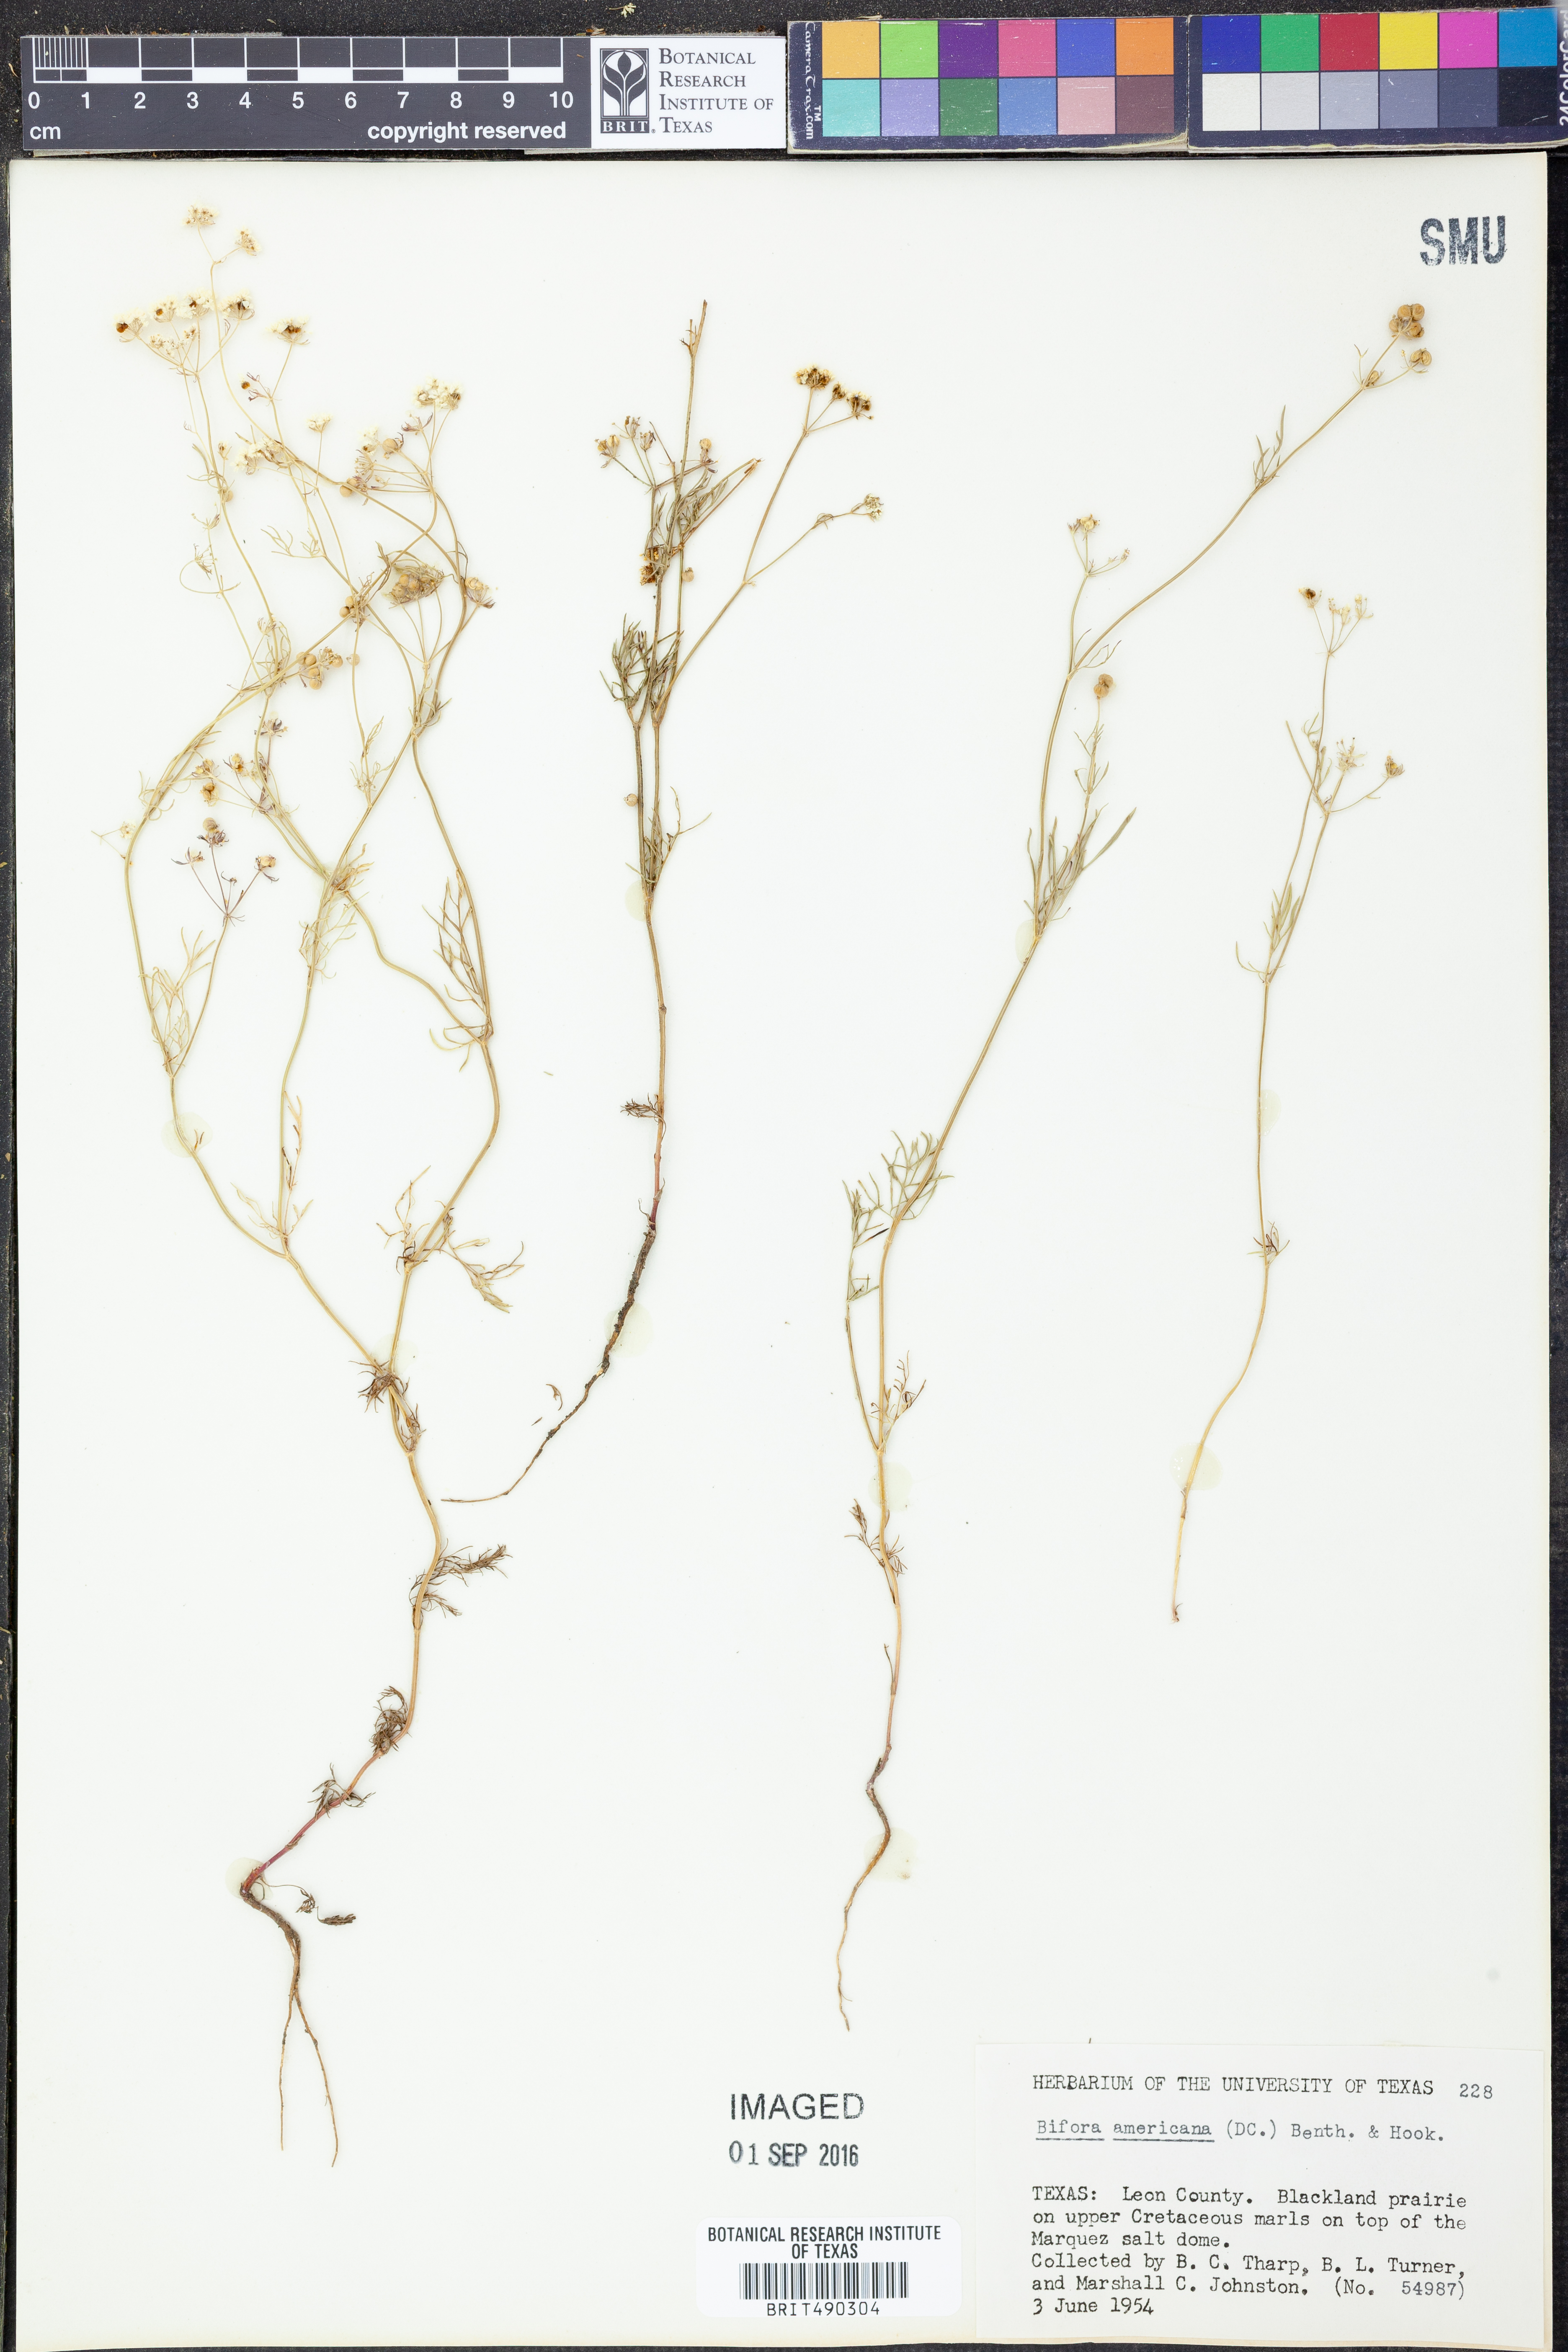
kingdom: Plantae
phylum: Tracheophyta
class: Magnoliopsida
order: Apiales
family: Apiaceae
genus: Atrema
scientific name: Atrema americanum
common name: Prairie-bishop
